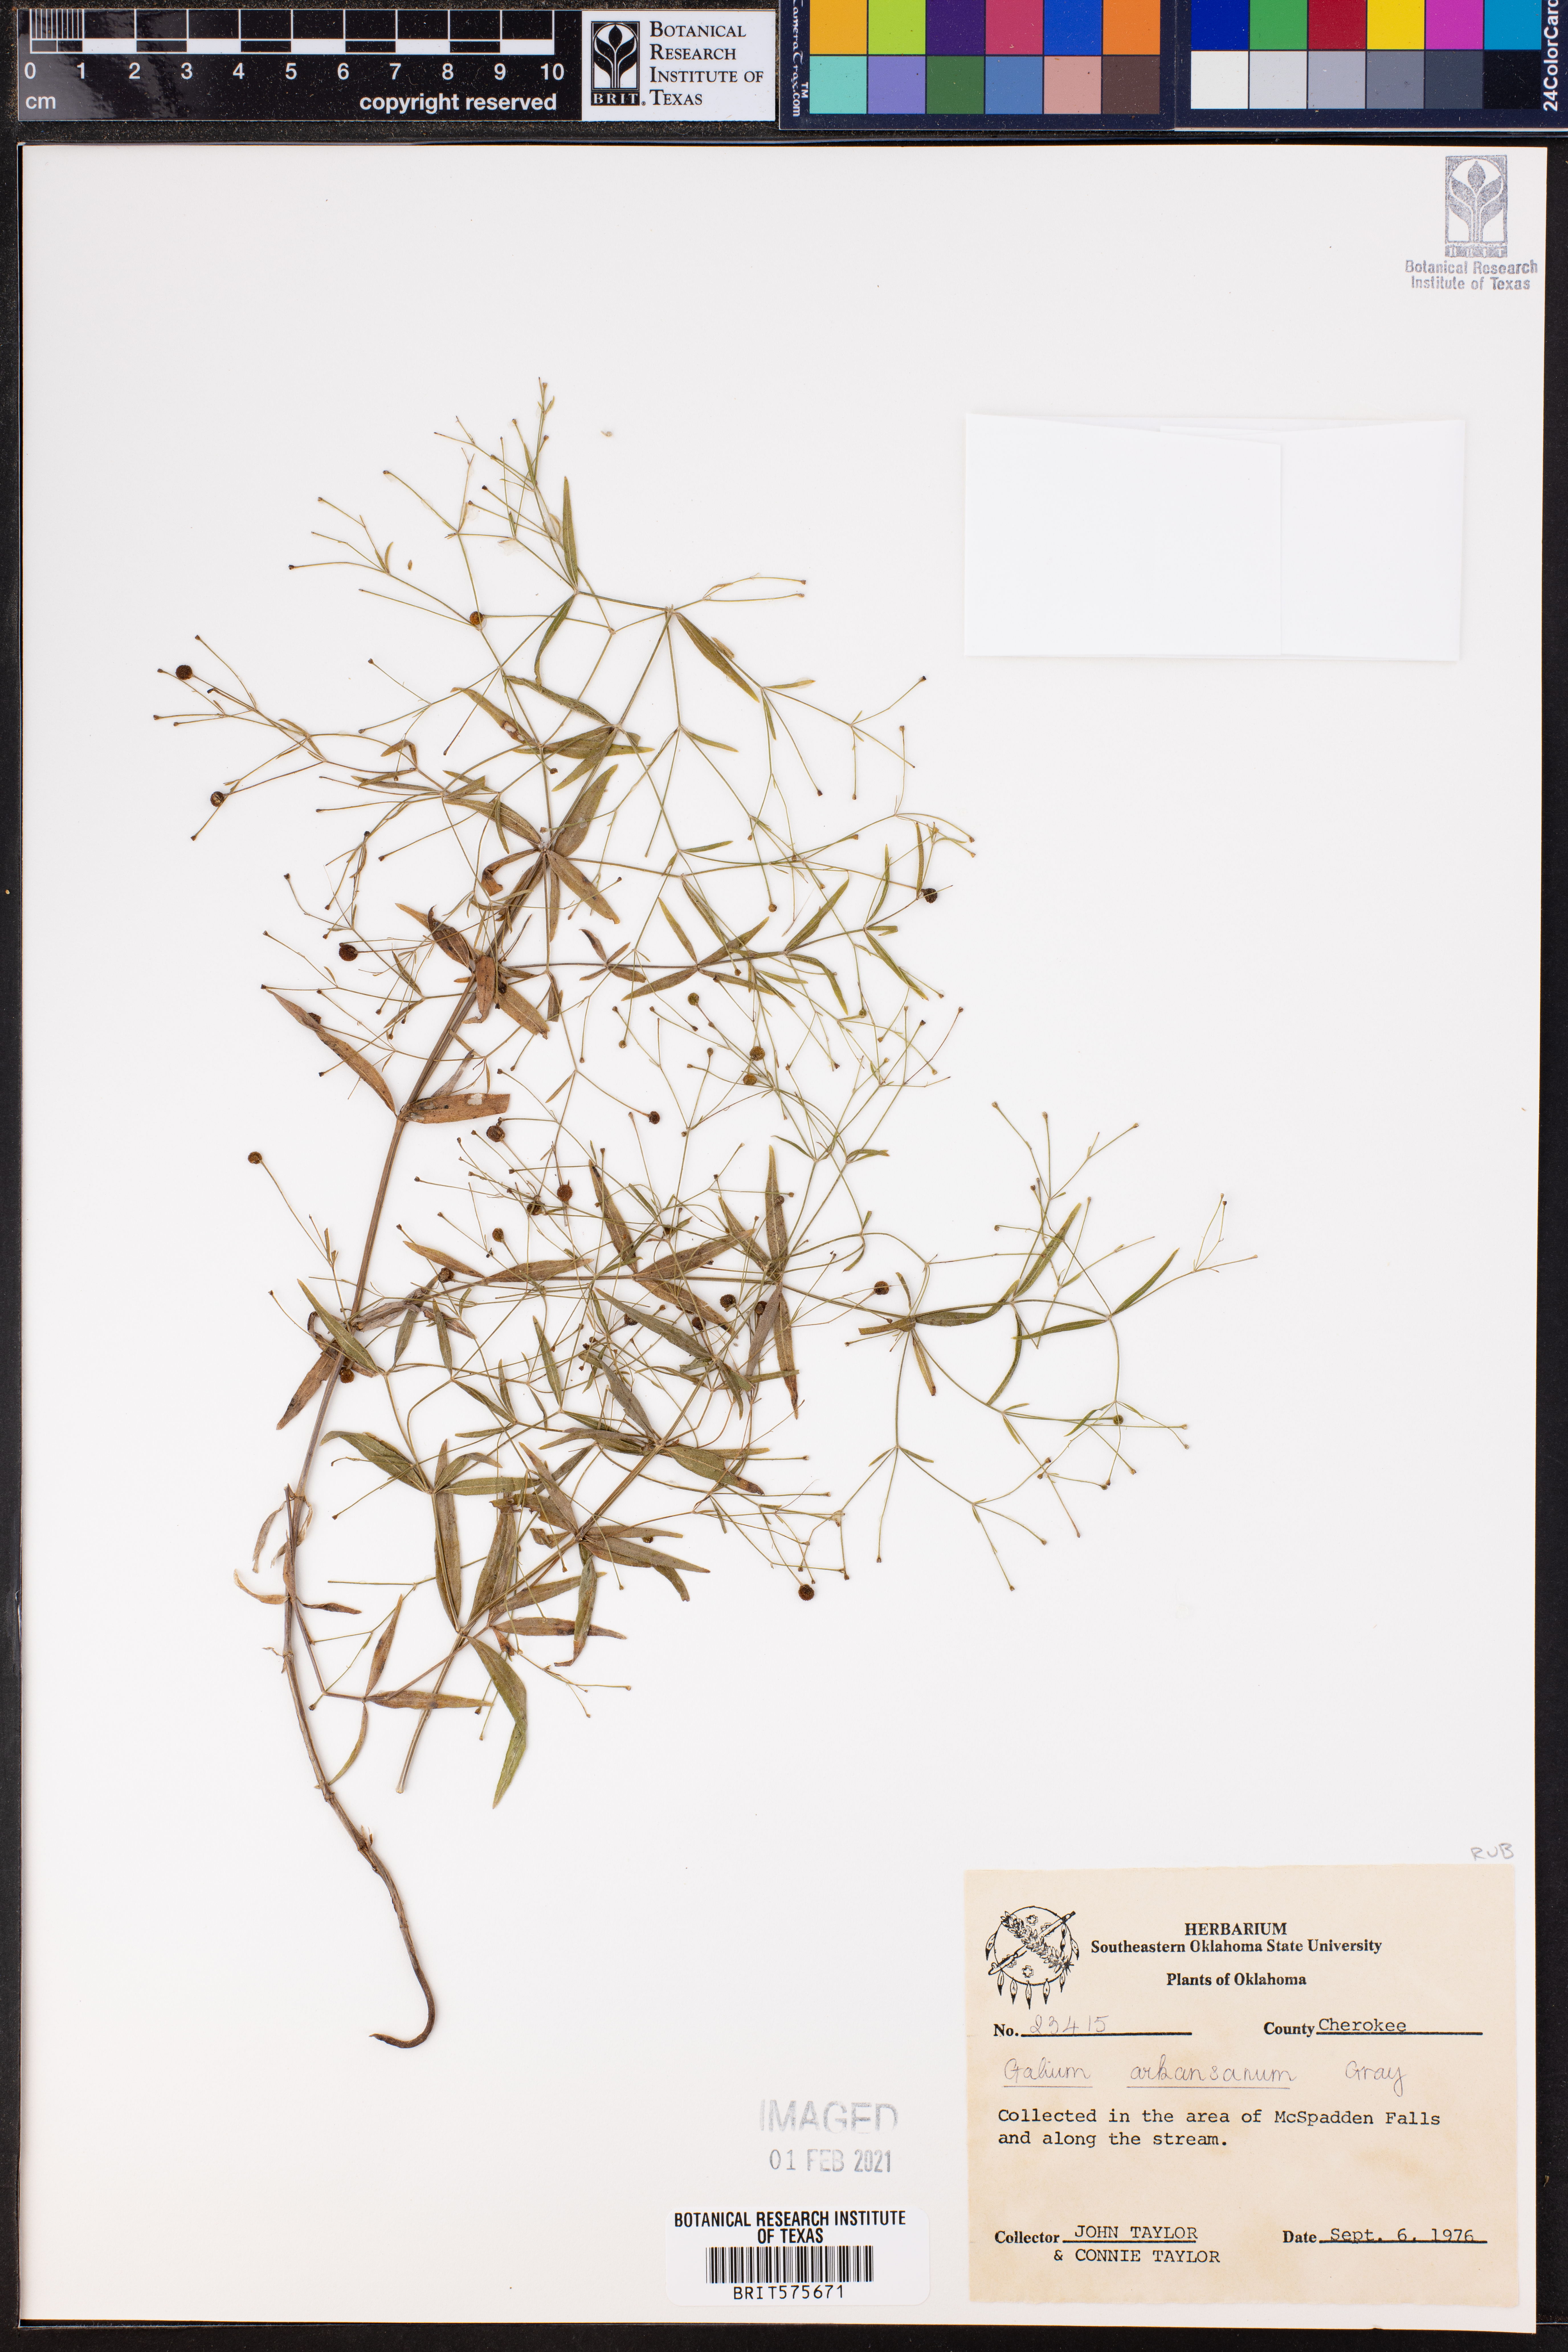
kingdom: Plantae
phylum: Tracheophyta
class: Magnoliopsida
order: Gentianales
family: Rubiaceae
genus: Galium
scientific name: Galium arkansanum
